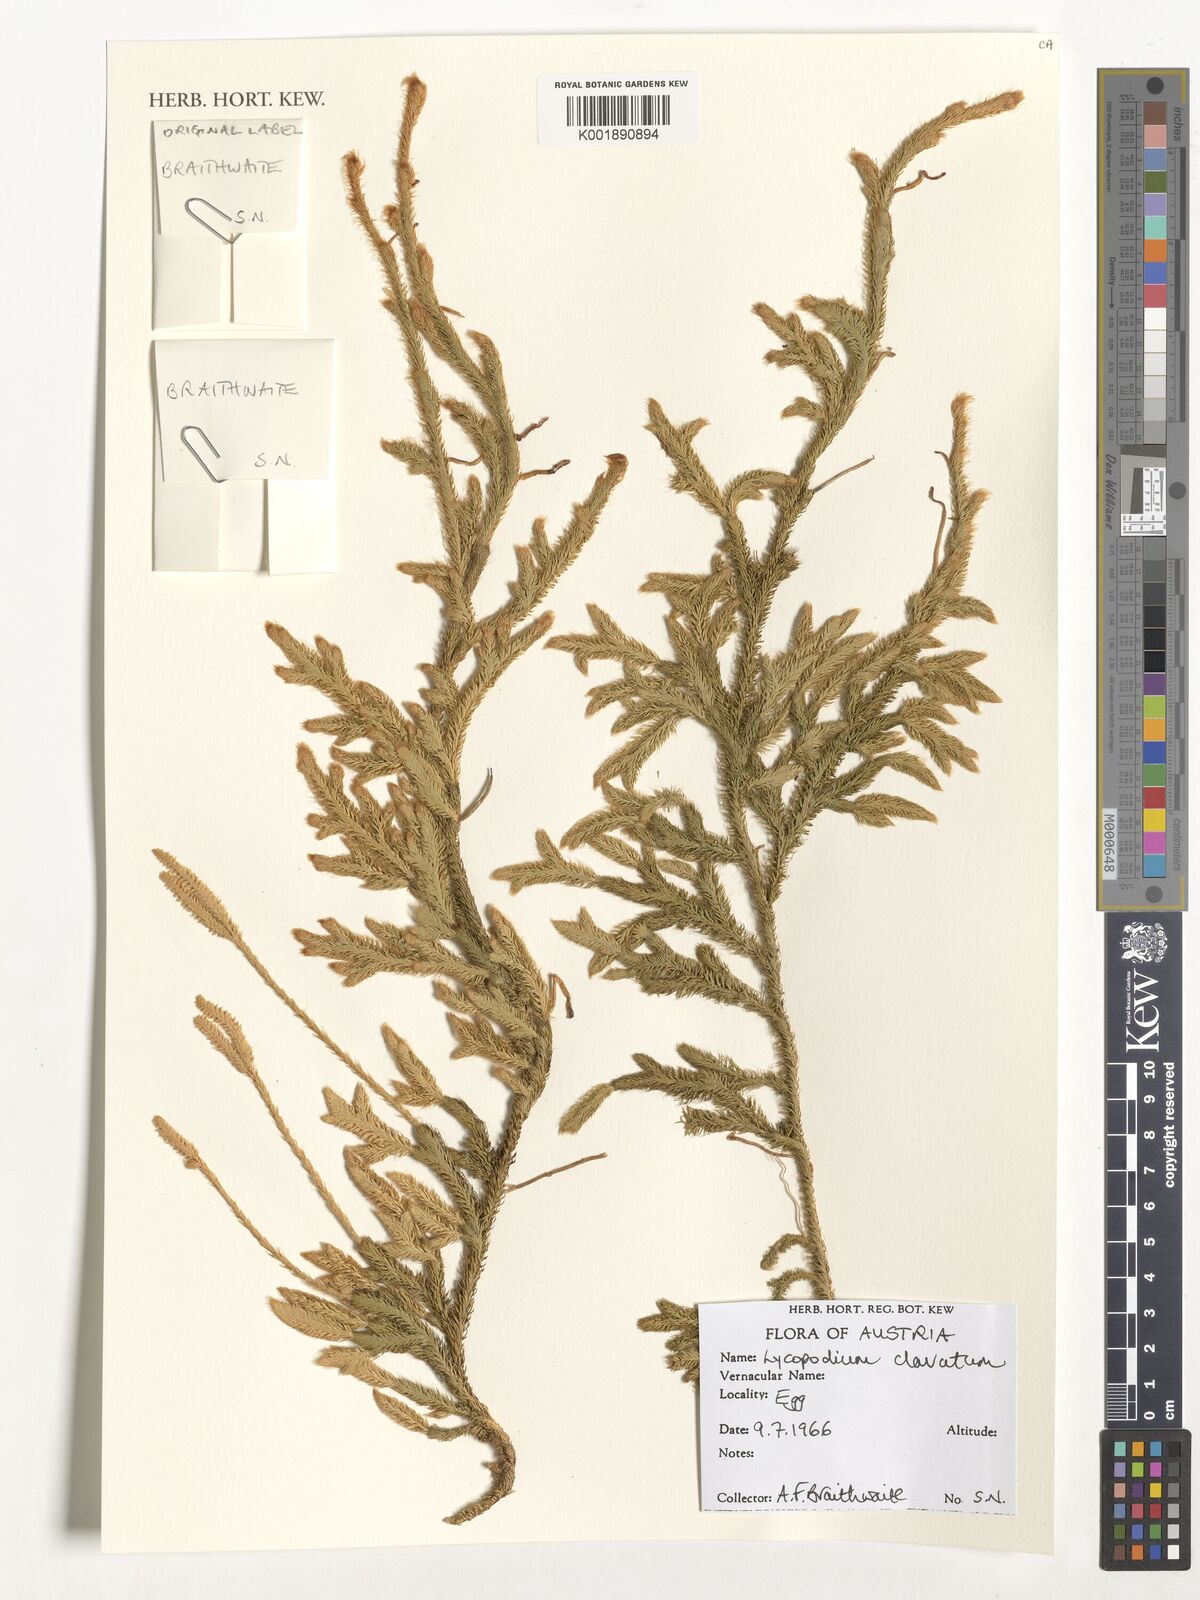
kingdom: Plantae
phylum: Tracheophyta
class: Lycopodiopsida
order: Lycopodiales
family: Lycopodiaceae
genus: Lycopodium
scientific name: Lycopodium clavatum
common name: Stag's-horn clubmoss
